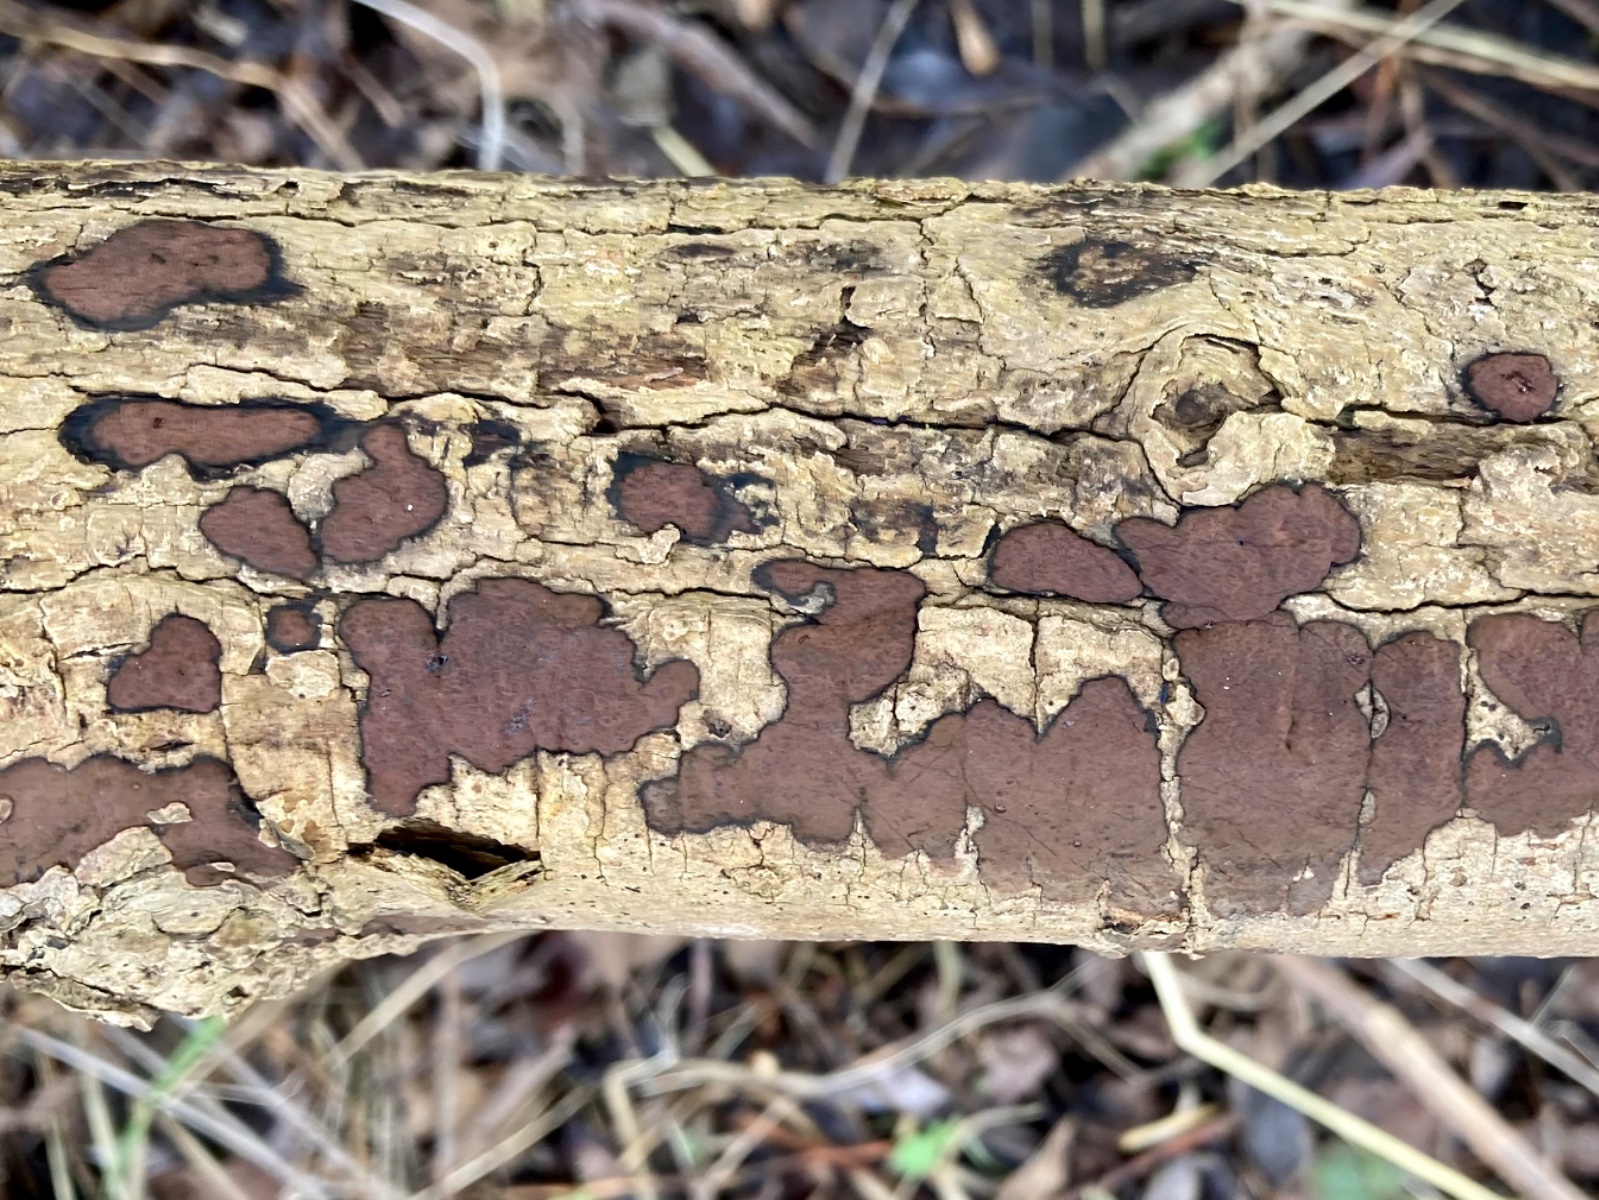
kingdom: Fungi
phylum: Ascomycota
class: Sordariomycetes
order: Xylariales
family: Hypoxylaceae
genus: Hypoxylon
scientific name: Hypoxylon petriniae
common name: nedsænket kulbær
